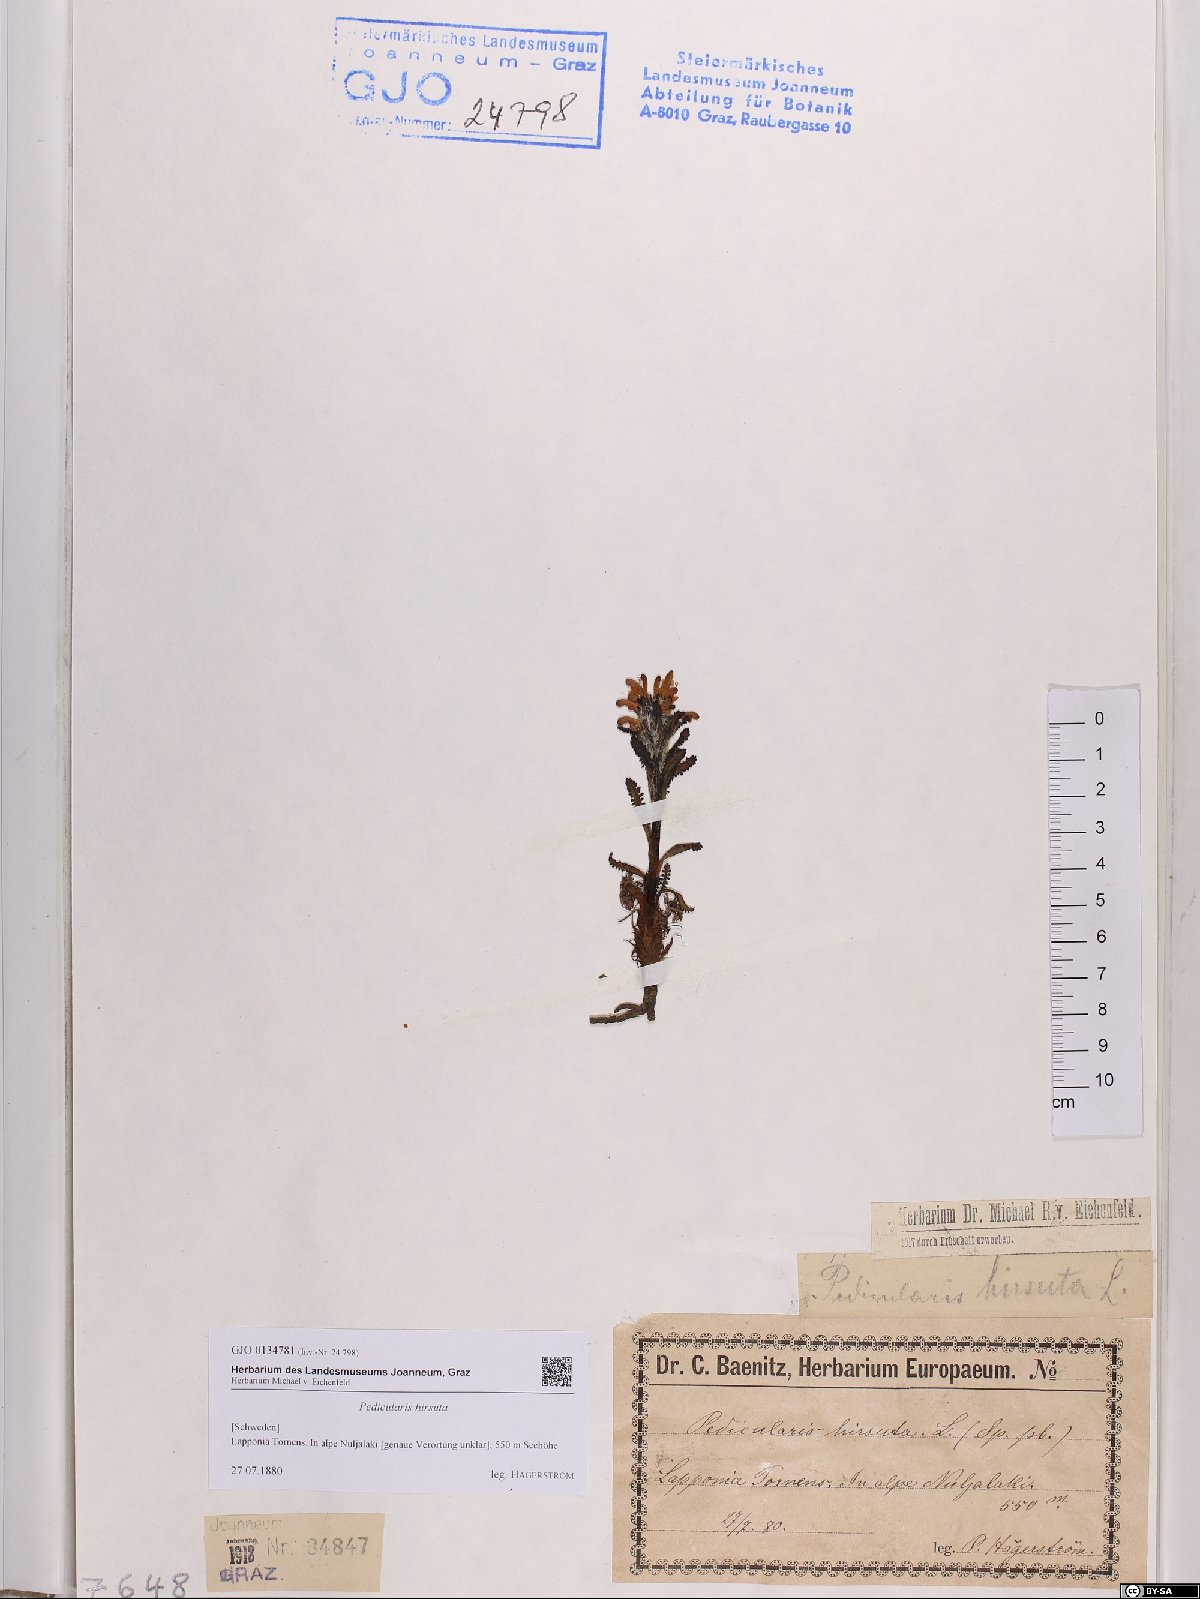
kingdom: Plantae
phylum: Tracheophyta
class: Magnoliopsida
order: Lamiales
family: Orobanchaceae
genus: Pedicularis
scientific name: Pedicularis hirsuta
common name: Hairy lousewort
